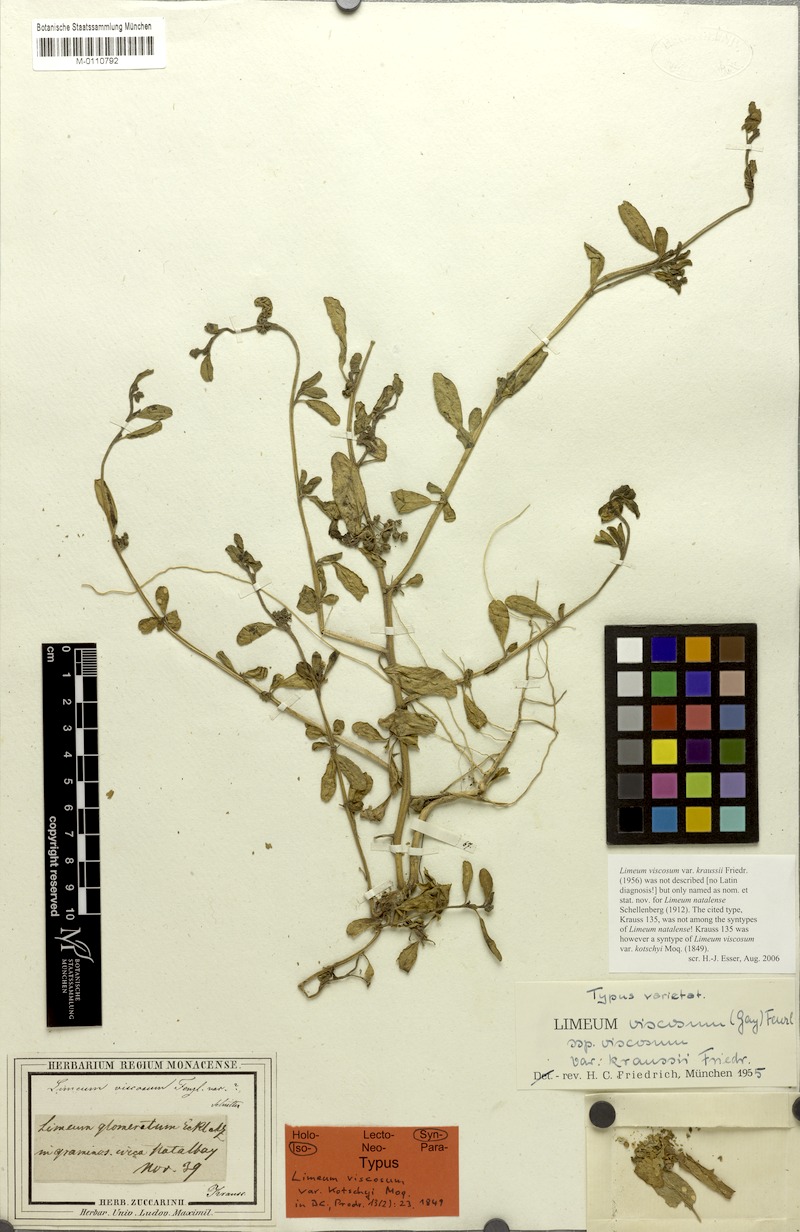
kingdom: Plantae
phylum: Tracheophyta
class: Magnoliopsida
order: Caryophyllales
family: Limeaceae
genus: Limeum
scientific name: Limeum viscosum
